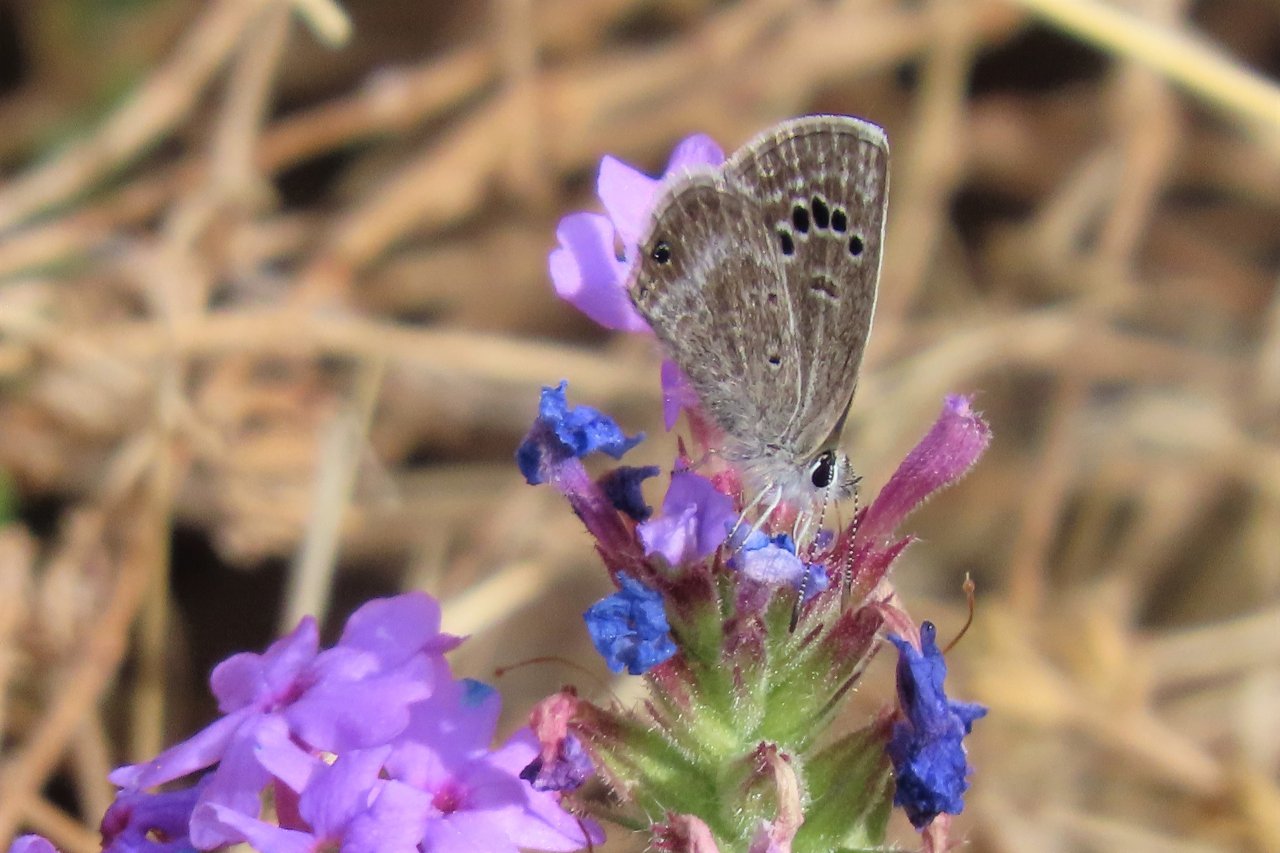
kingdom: Animalia
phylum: Arthropoda
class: Insecta
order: Lepidoptera
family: Lycaenidae
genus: Echinargus
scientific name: Echinargus isola
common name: Reakirt's Blue
